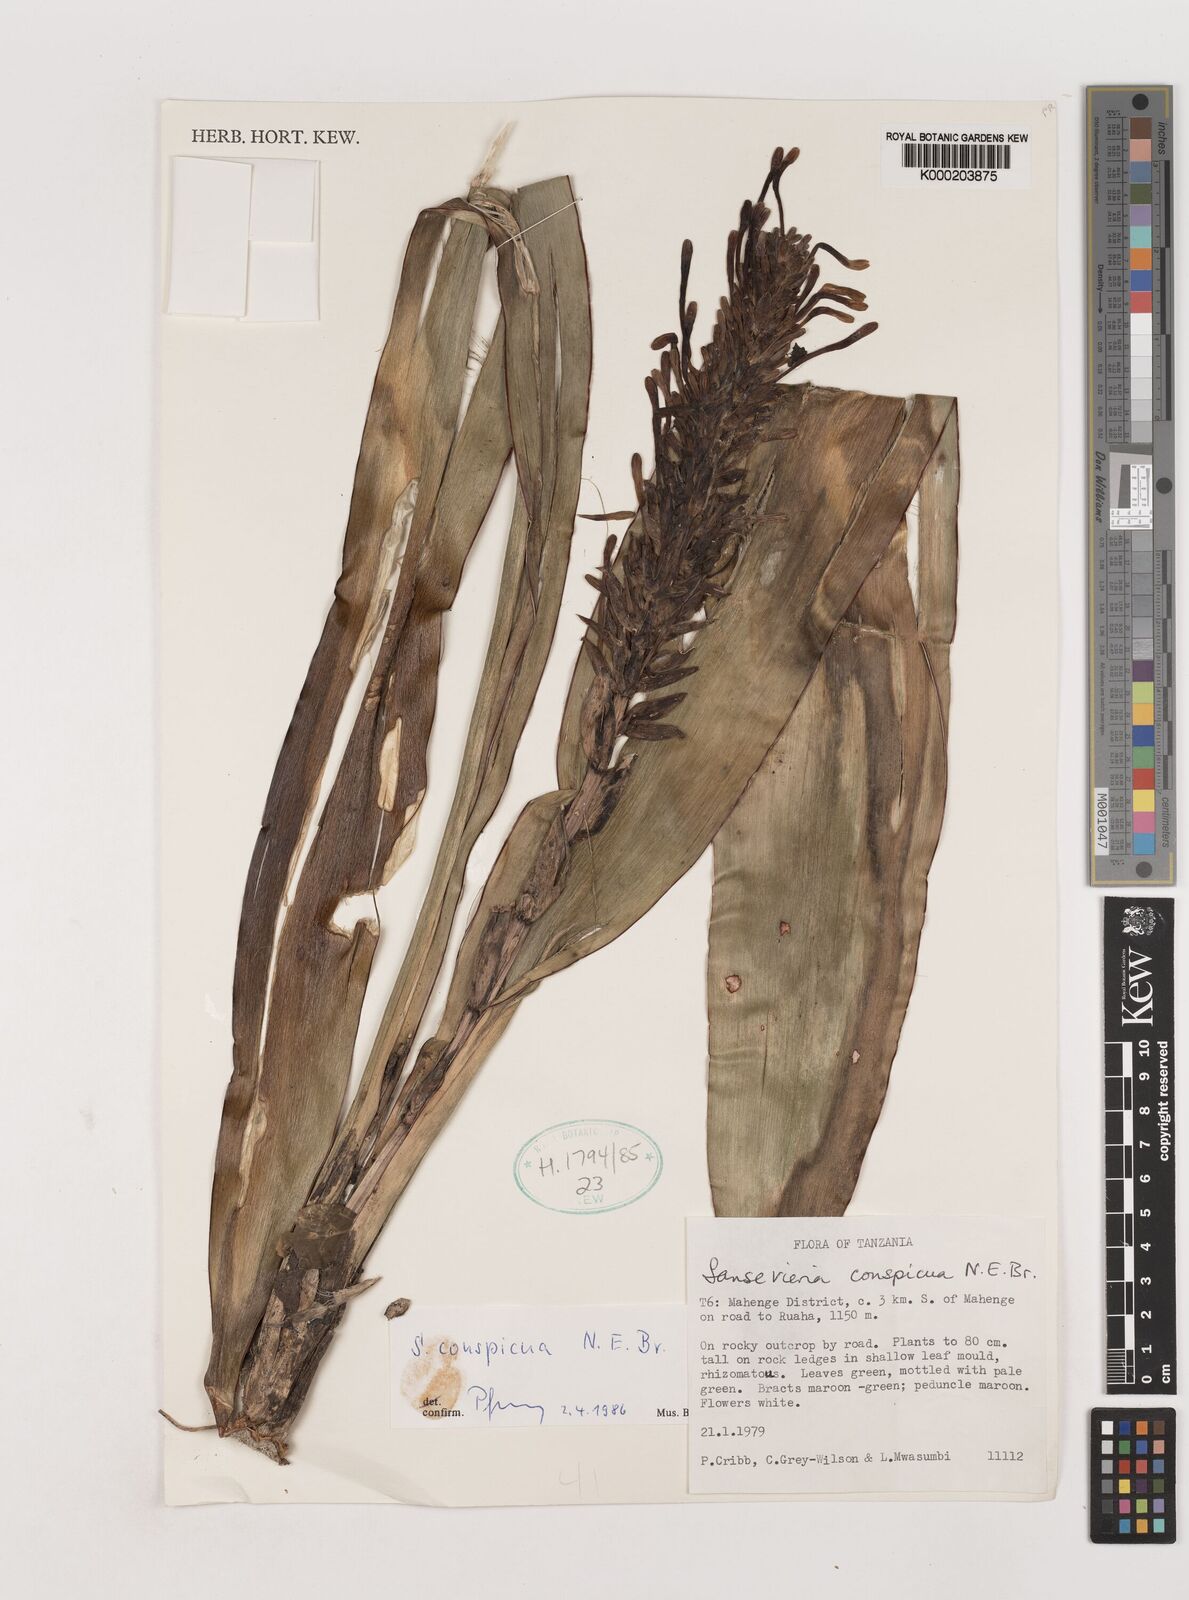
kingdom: Plantae
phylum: Tracheophyta
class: Liliopsida
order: Asparagales
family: Asparagaceae
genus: Dracaena
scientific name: Dracaena conspicua
